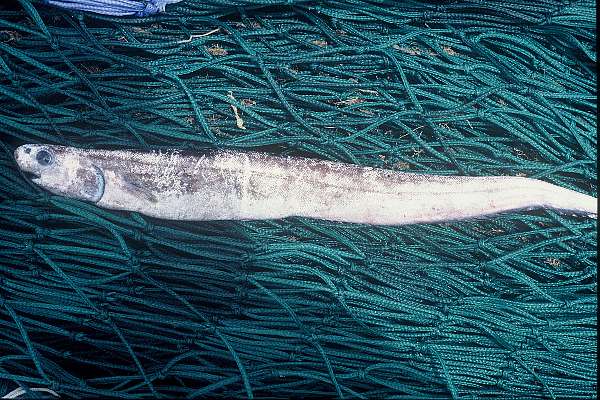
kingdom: Animalia
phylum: Chordata
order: Notacanthiformes
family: Notacanthidae
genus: Notacanthus
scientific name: Notacanthus sexspinis
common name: Spineback
